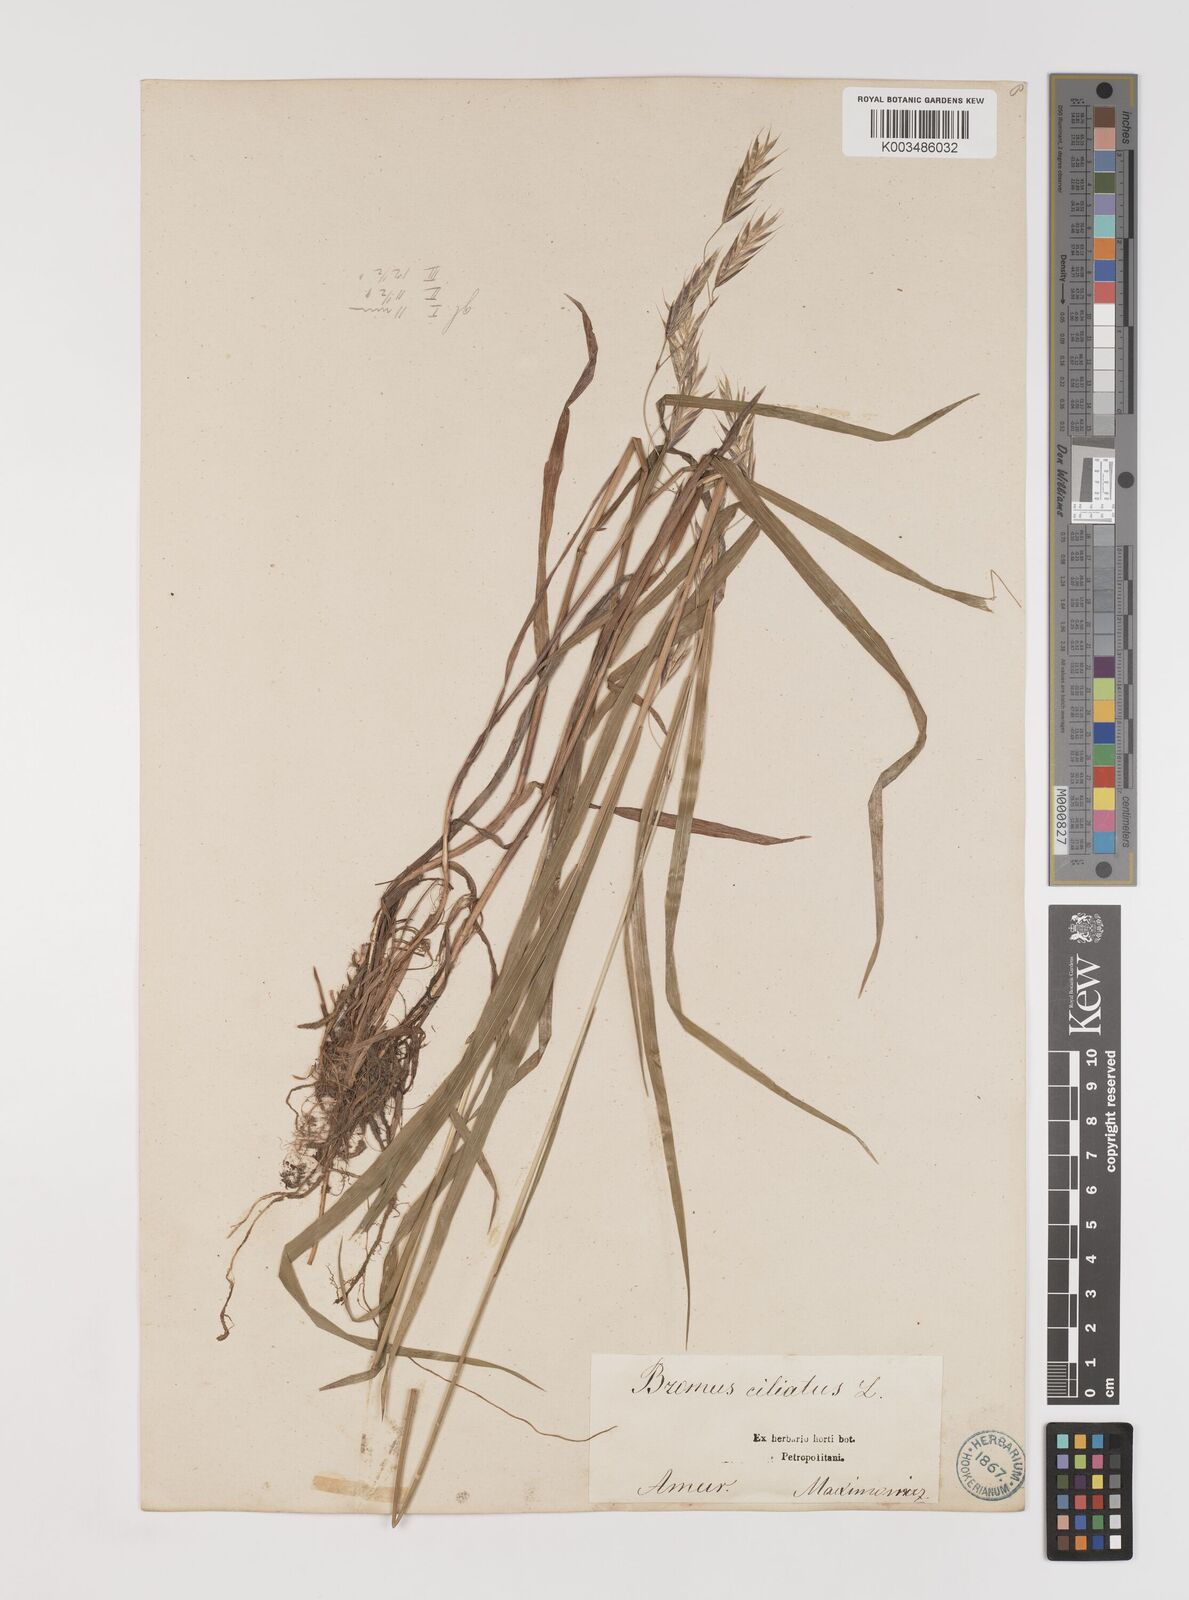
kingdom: Plantae
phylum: Tracheophyta
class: Liliopsida
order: Poales
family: Poaceae
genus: Bromus
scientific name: Bromus inermis
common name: Smooth brome
